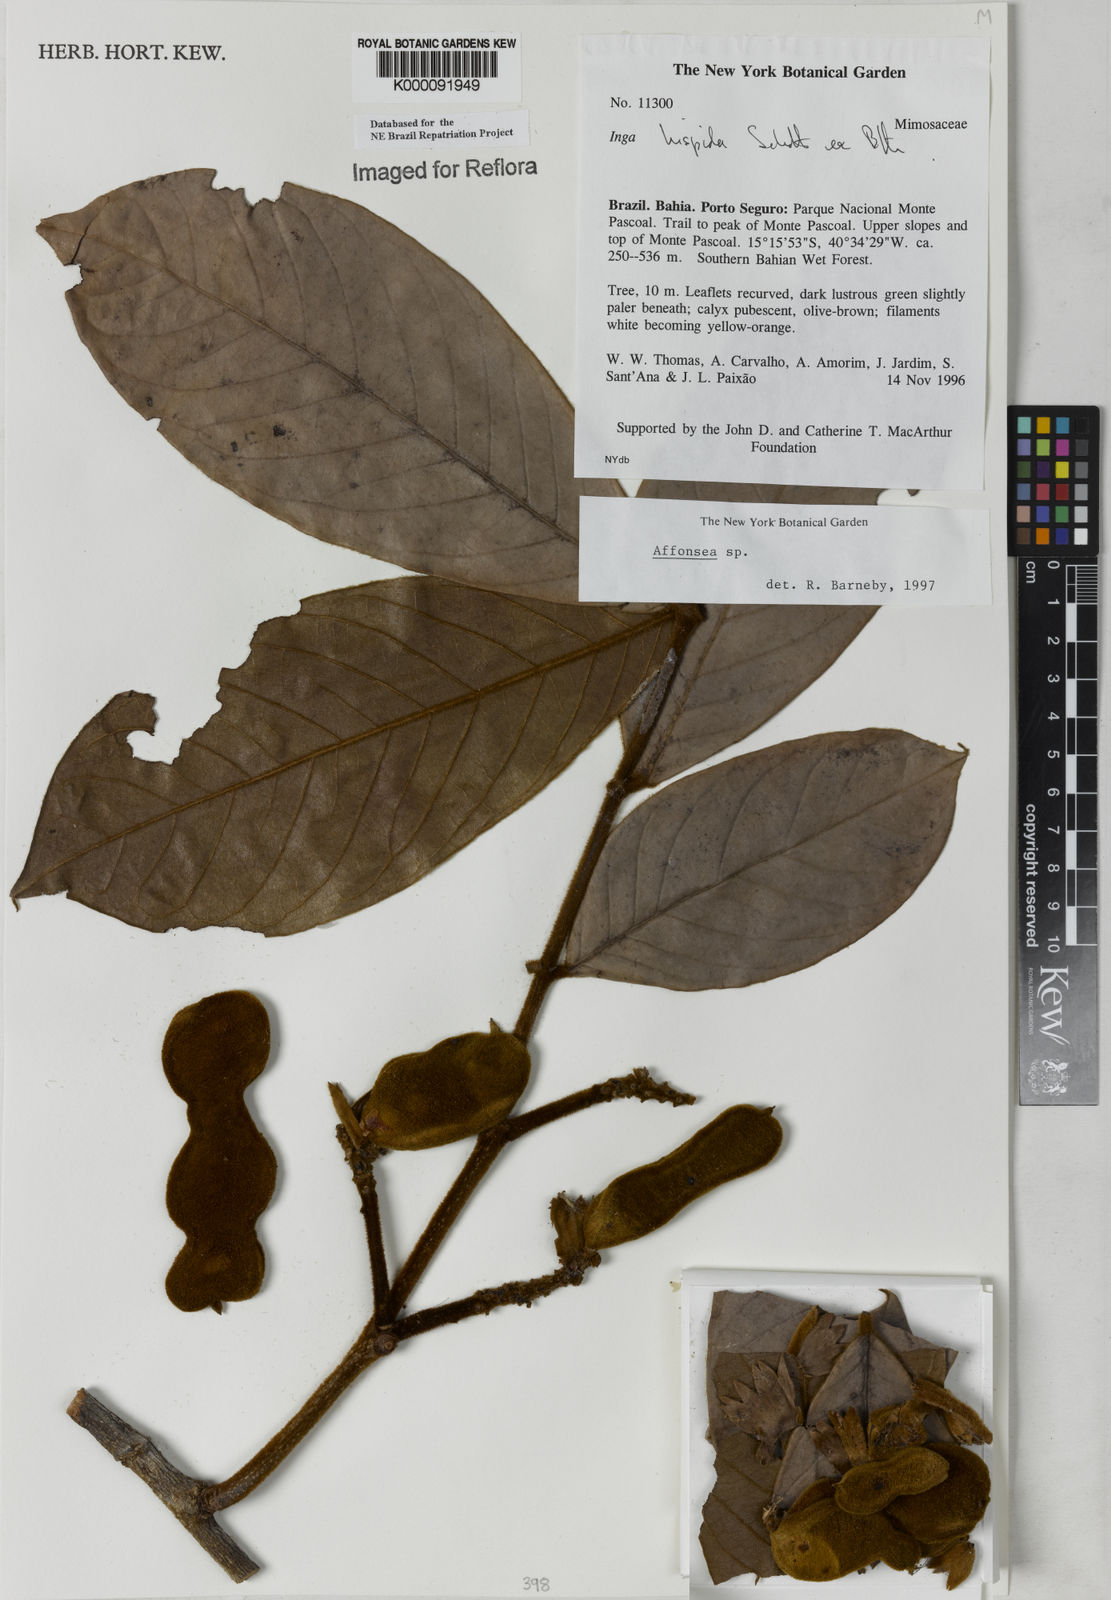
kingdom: Plantae
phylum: Tracheophyta
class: Magnoliopsida
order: Fabales
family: Fabaceae
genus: Inga
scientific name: Inga hispida
